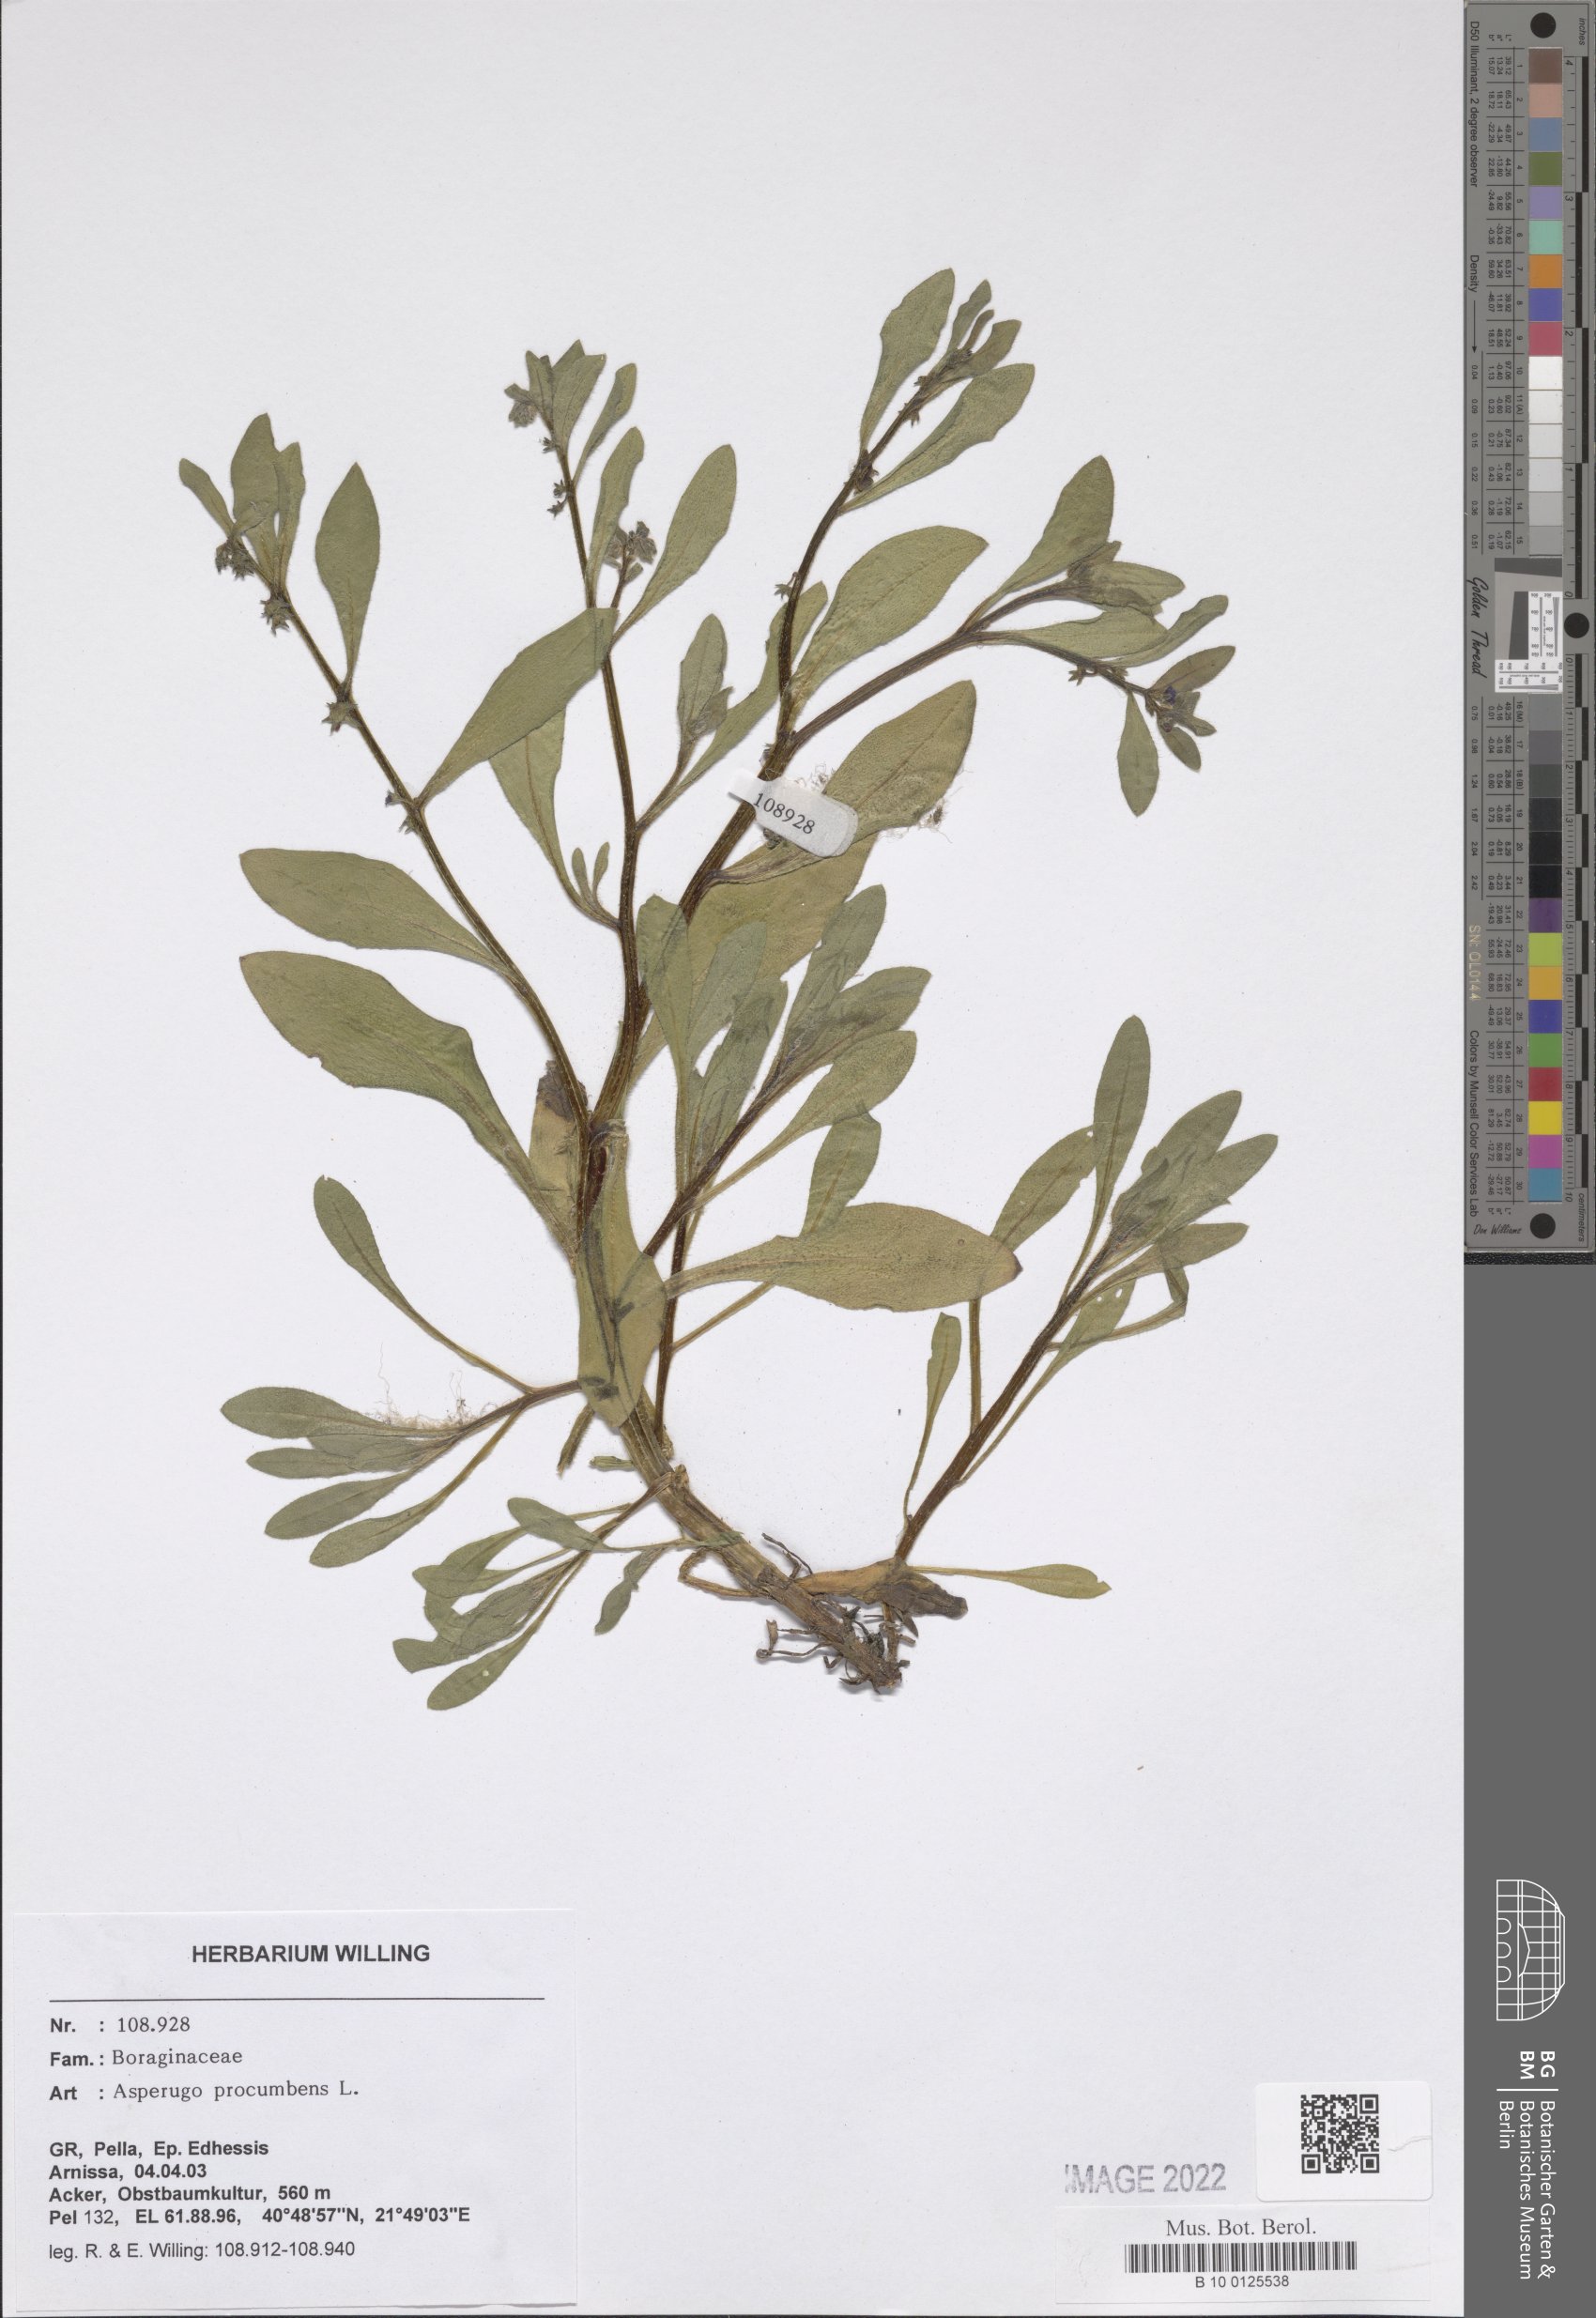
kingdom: Plantae
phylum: Tracheophyta
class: Magnoliopsida
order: Boraginales
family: Boraginaceae
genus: Asperugo
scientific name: Asperugo procumbens
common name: Madwort
